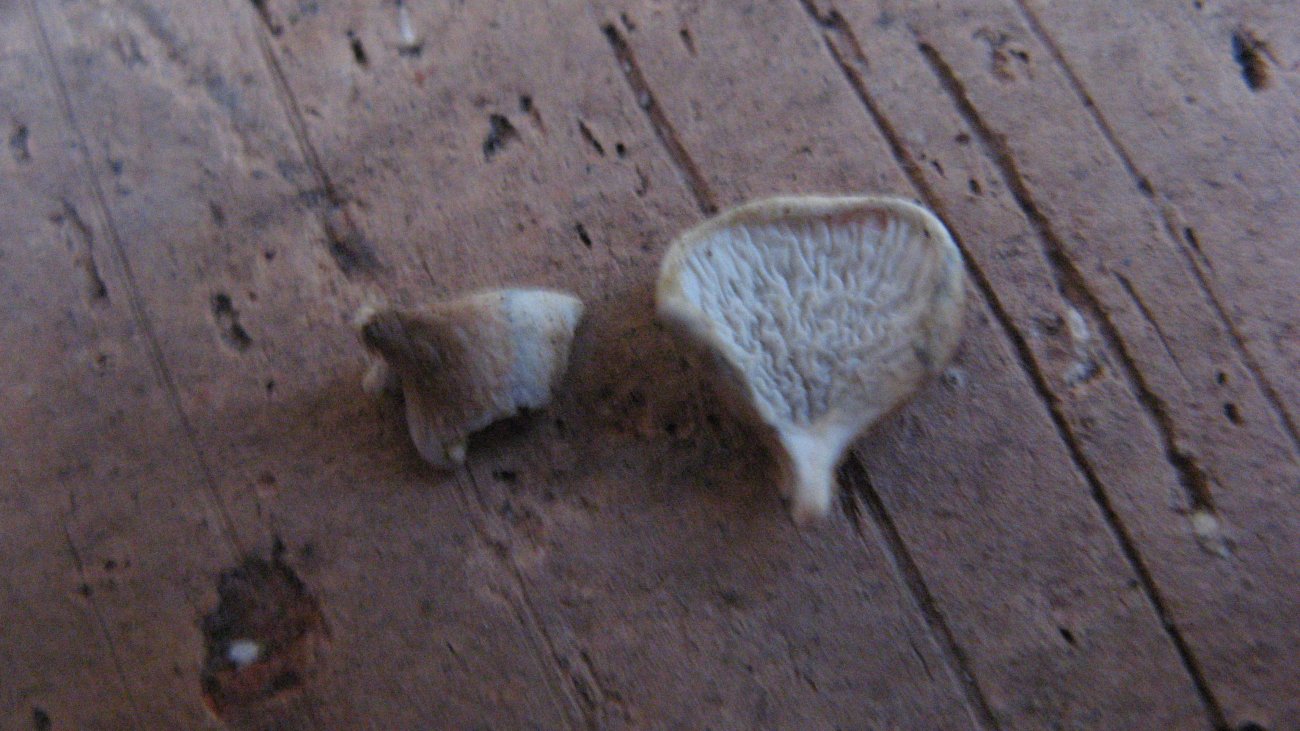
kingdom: Fungi
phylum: Basidiomycota
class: Agaricomycetes
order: Amylocorticiales
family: Amylocorticiaceae
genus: Plicaturopsis
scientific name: Plicaturopsis crispa
